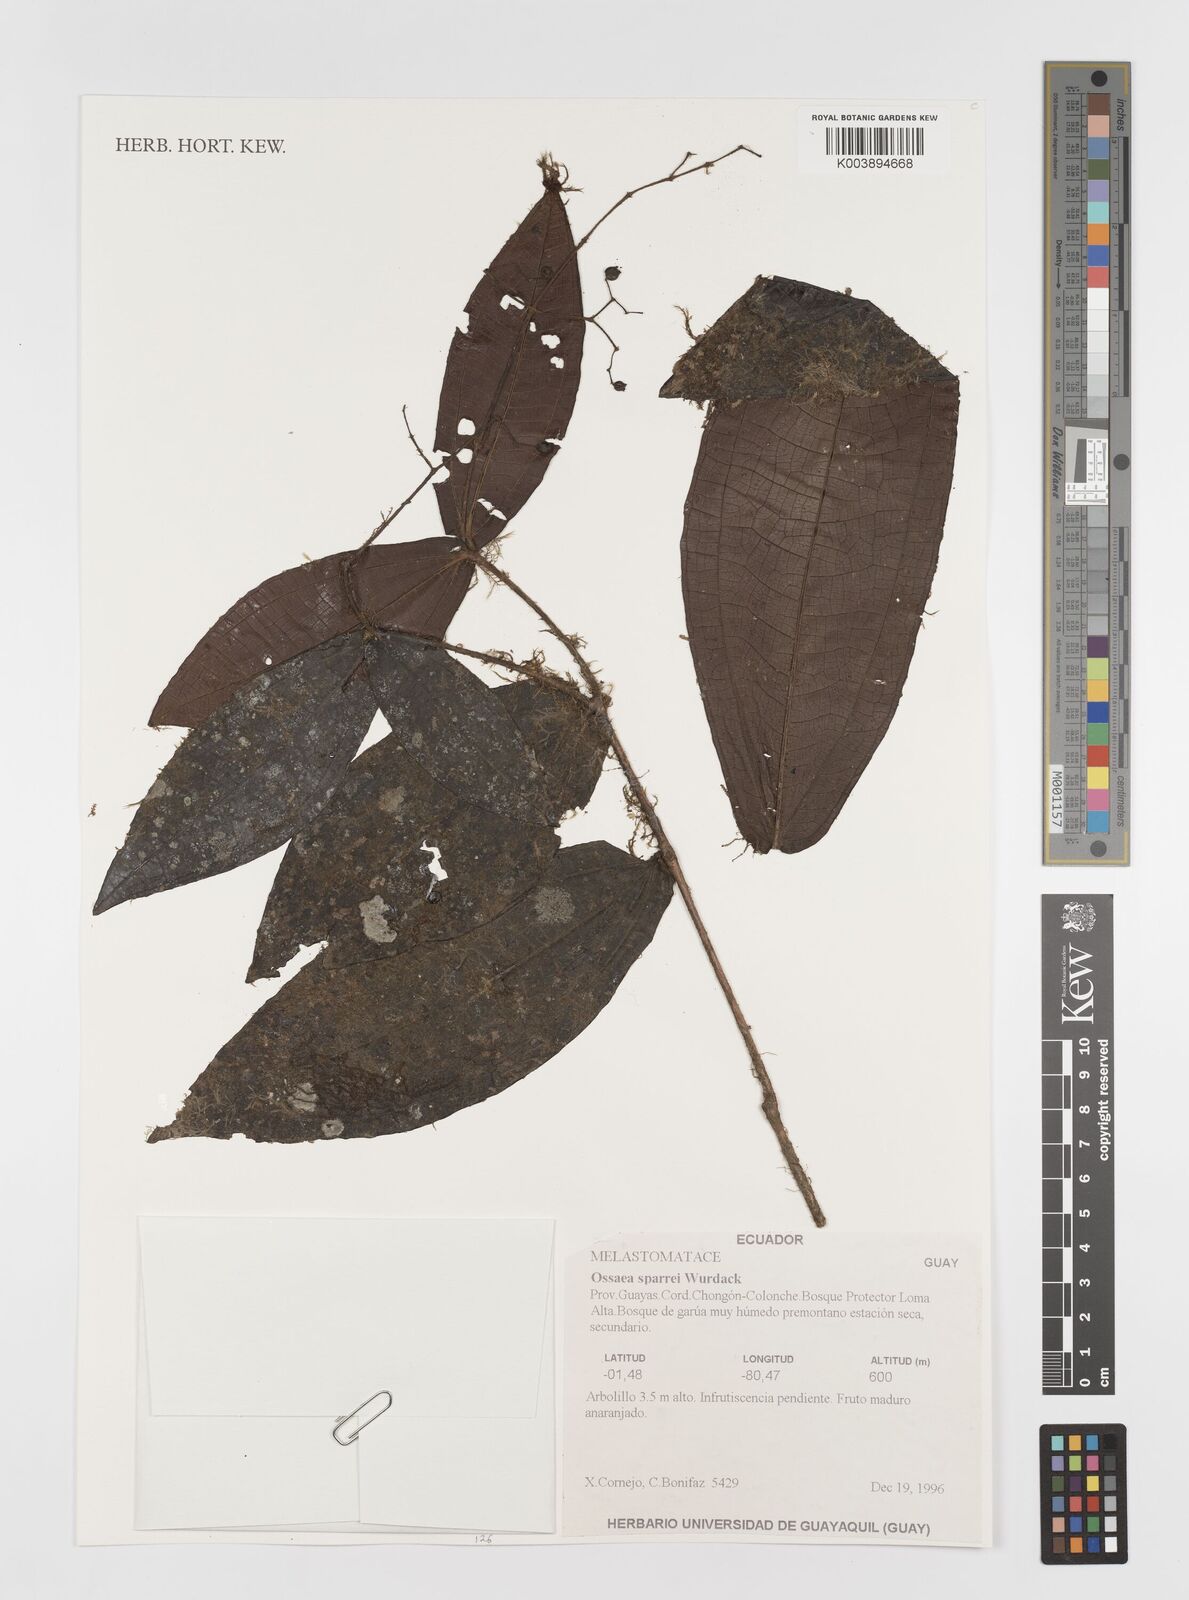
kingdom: Plantae
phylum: Tracheophyta
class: Magnoliopsida
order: Myrtales
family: Melastomataceae
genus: Miconia
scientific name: Miconia bensparrei
